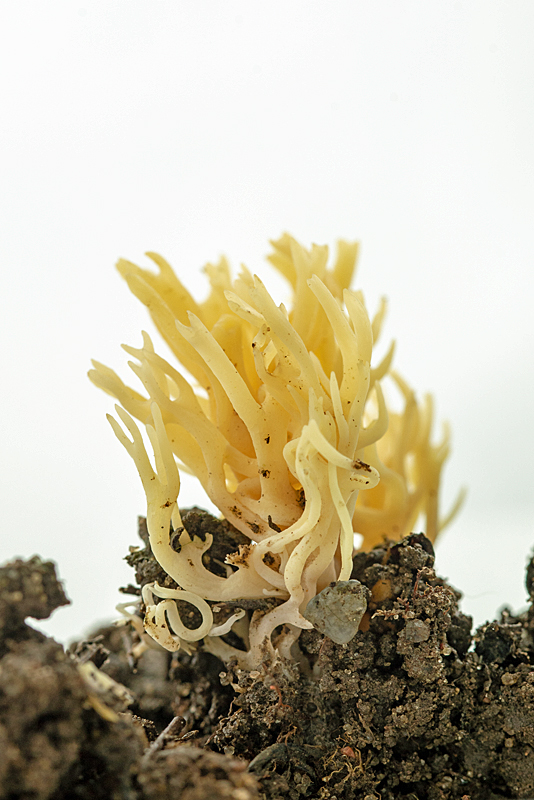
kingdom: Fungi
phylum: Basidiomycota
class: Agaricomycetes
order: Agaricales
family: Clavariaceae
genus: Ramariopsis
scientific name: Ramariopsis crocea
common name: gylden køllesvamp
